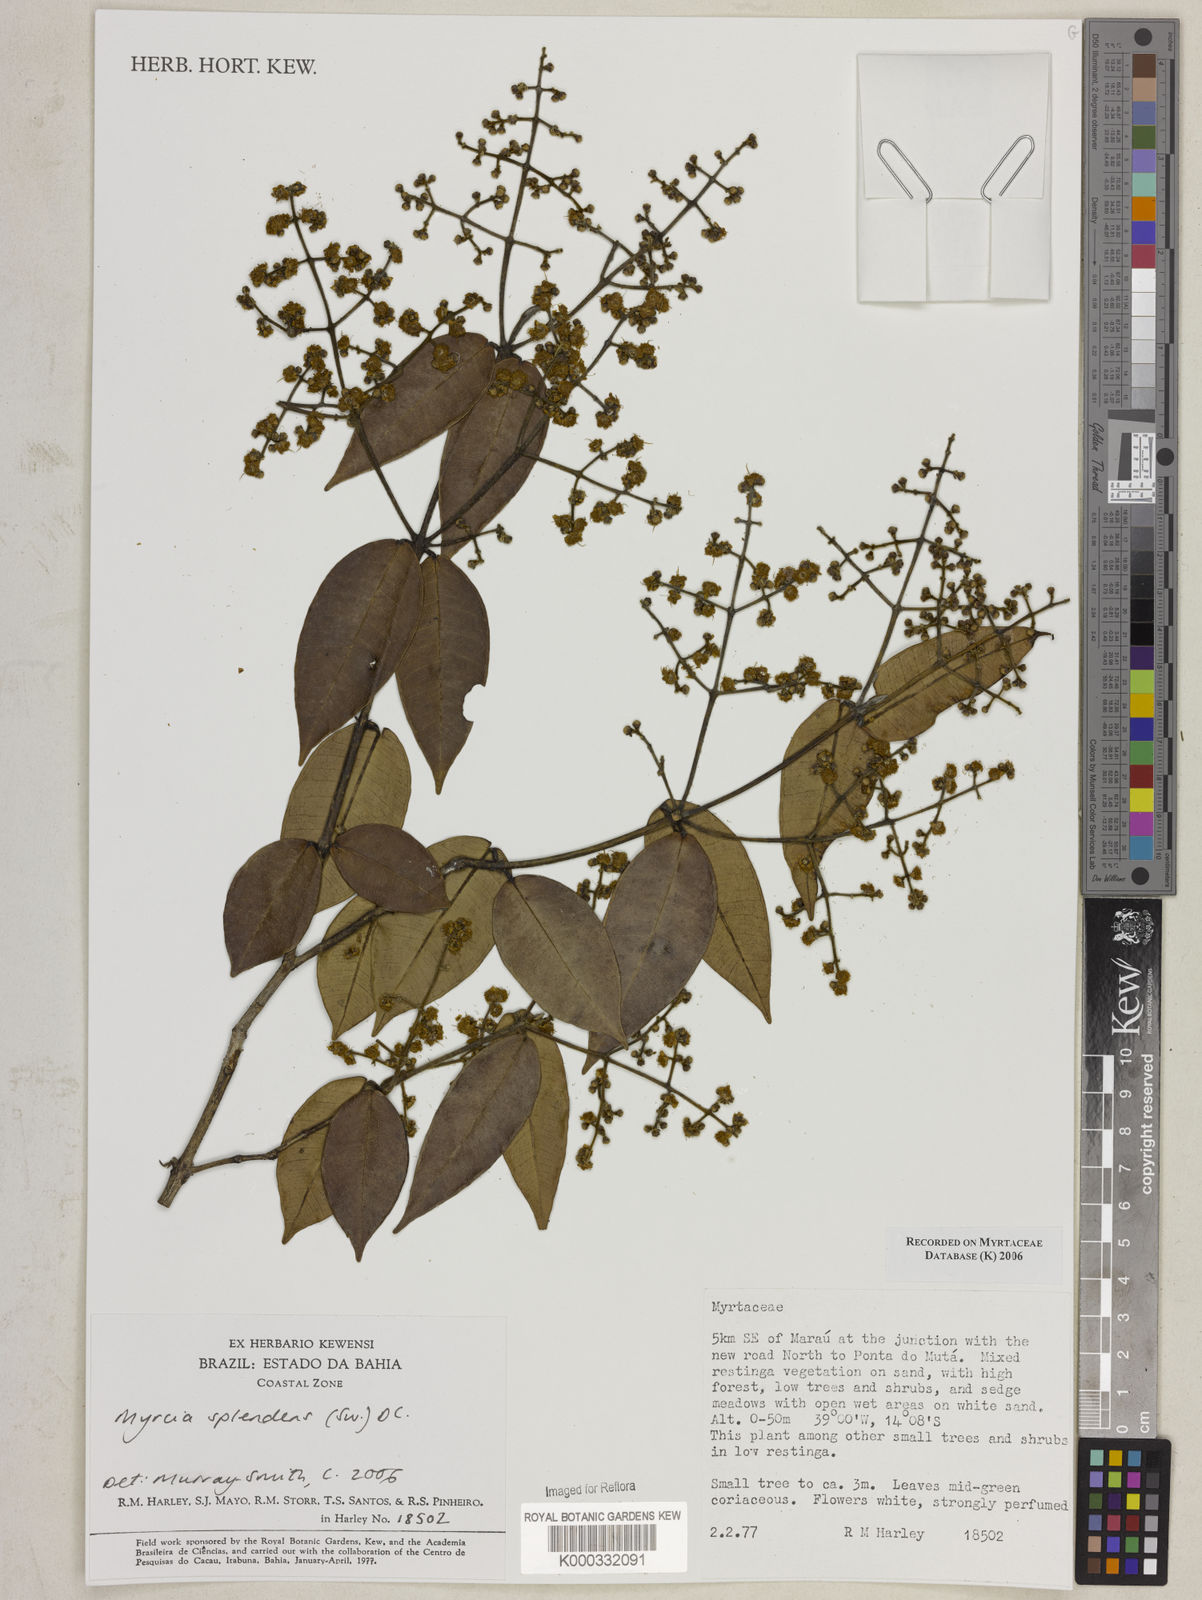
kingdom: Plantae
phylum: Tracheophyta
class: Magnoliopsida
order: Myrtales
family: Myrtaceae
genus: Myrcia
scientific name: Myrcia splendens
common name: Surinam cherry
